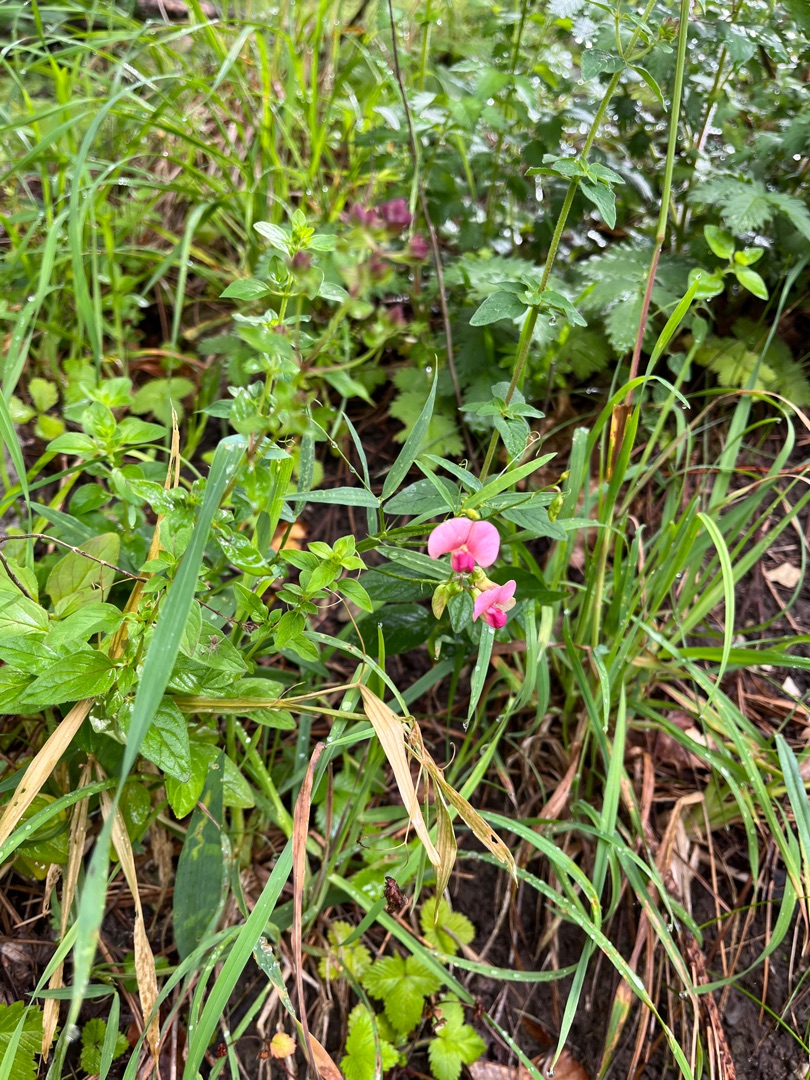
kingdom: Plantae
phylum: Tracheophyta
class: Magnoliopsida
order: Fabales
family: Fabaceae
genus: Lathyrus
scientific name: Lathyrus sylvestris
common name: Skov-fladbælg
